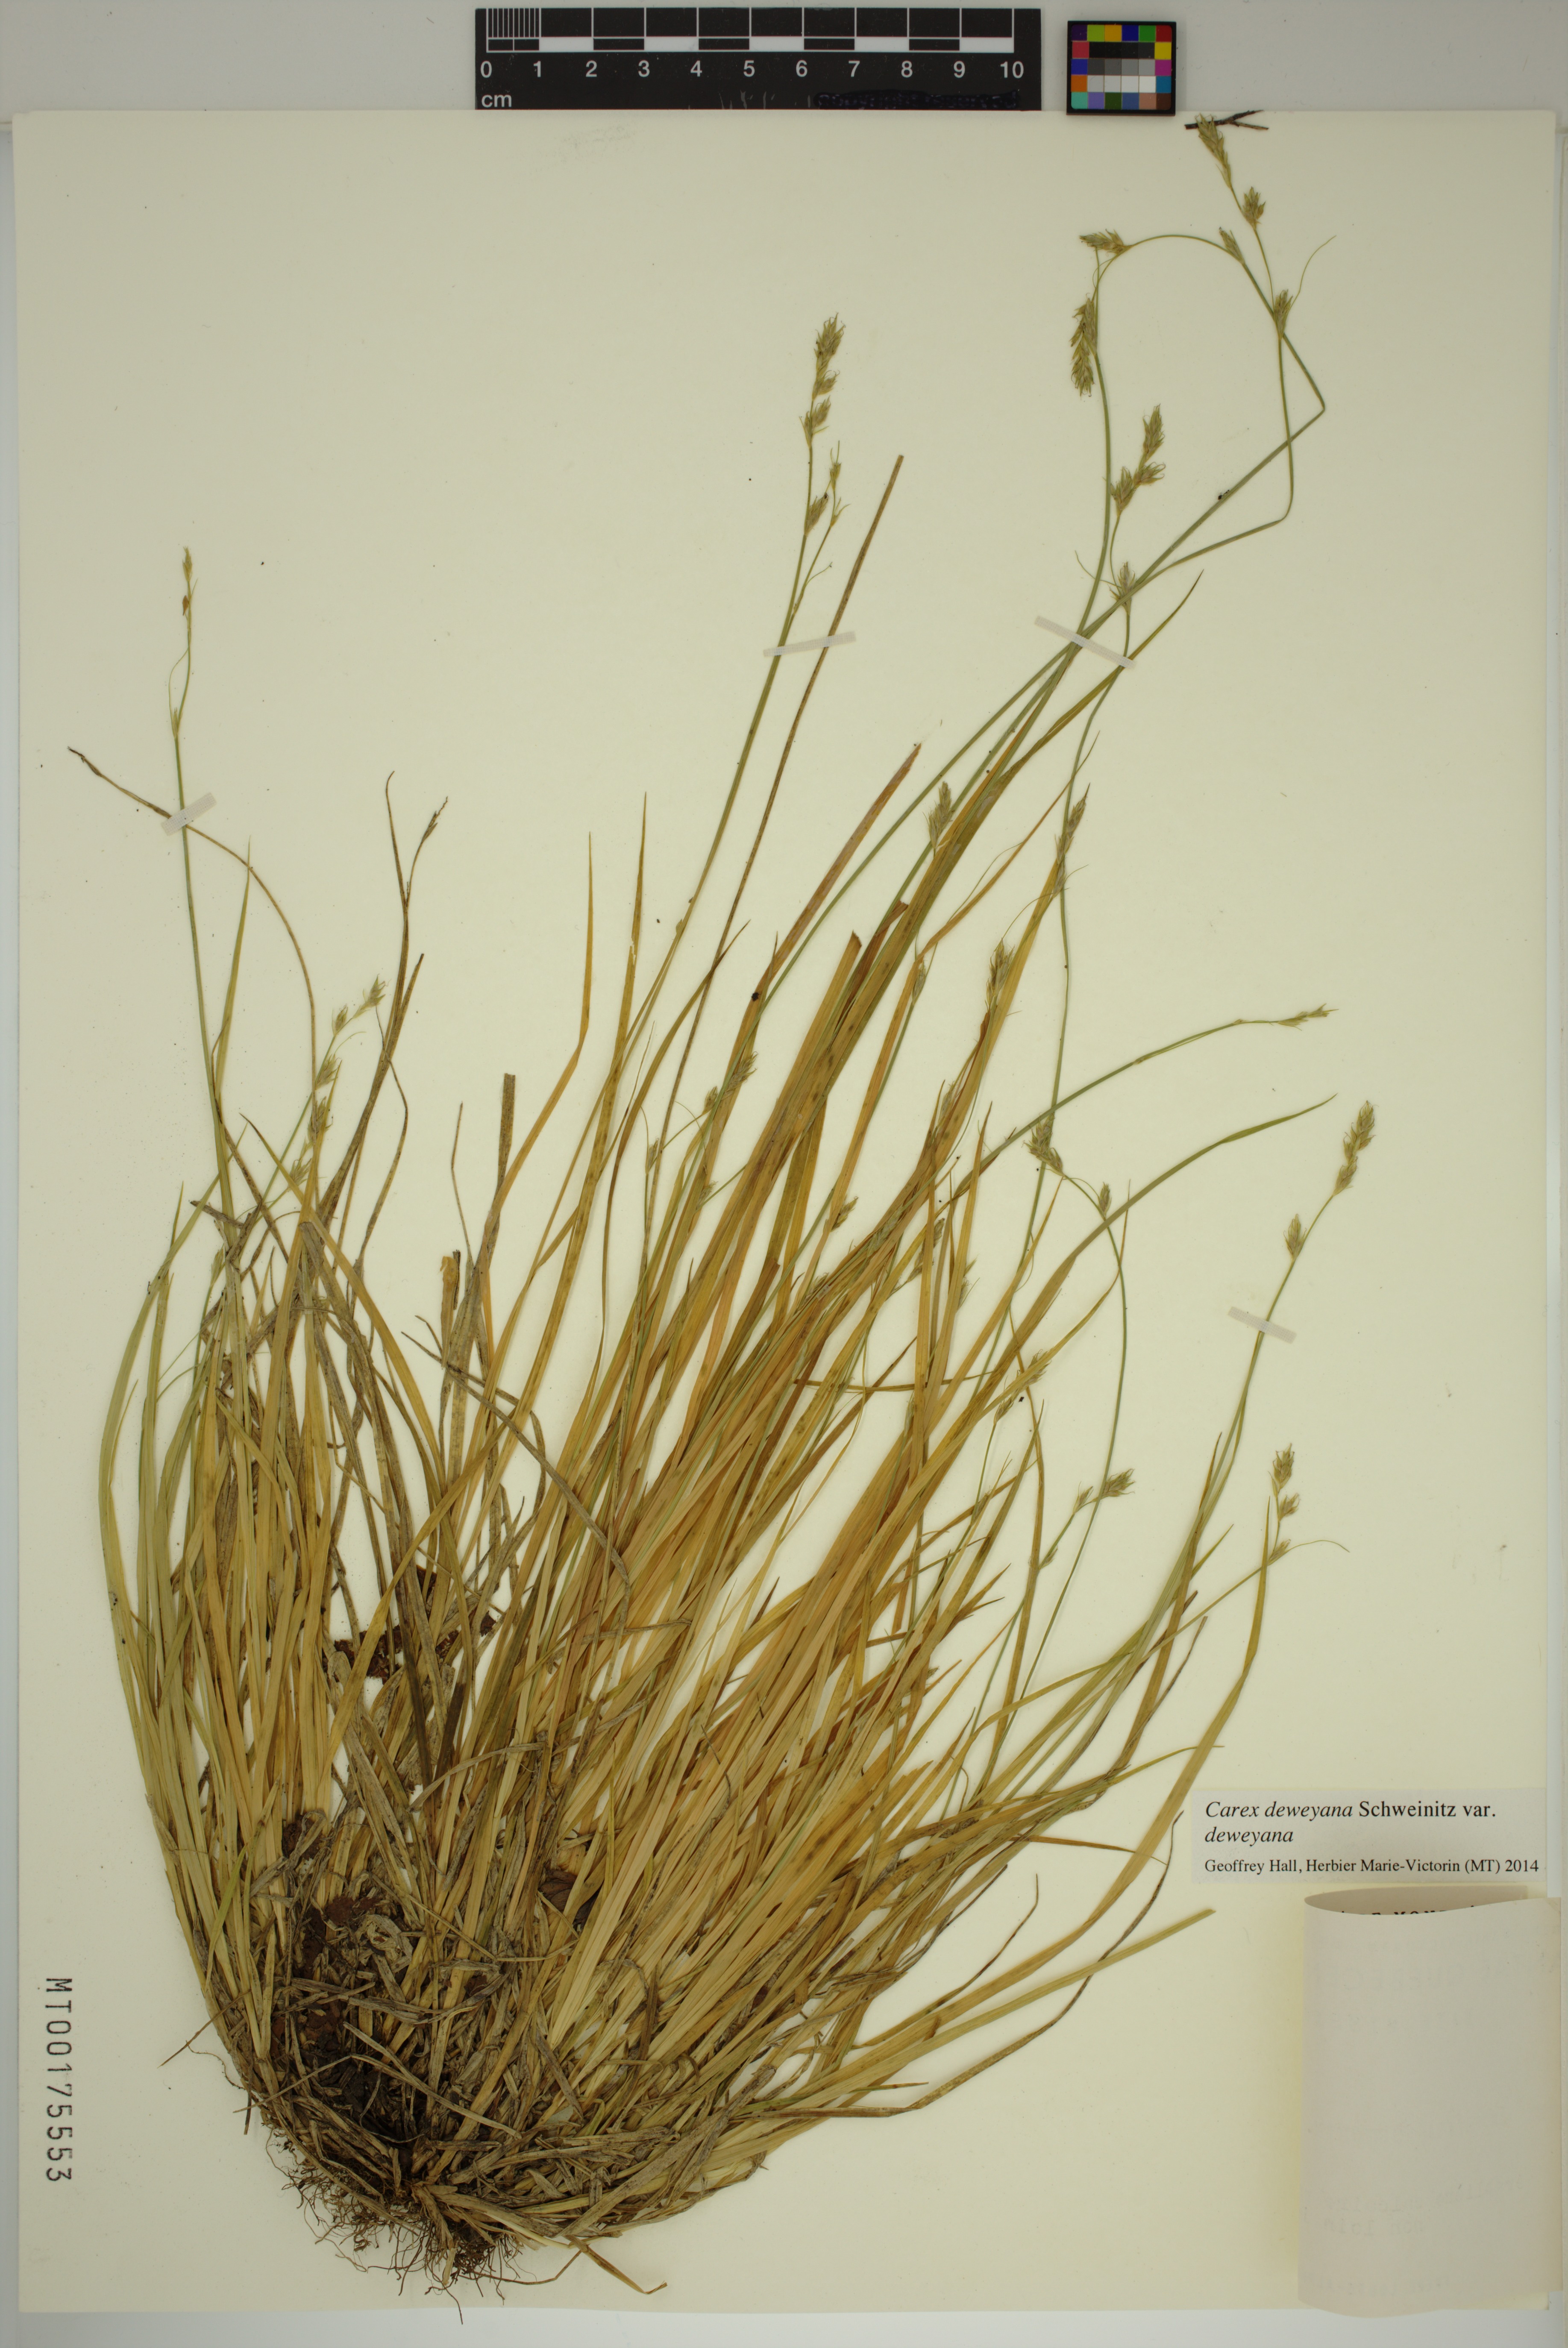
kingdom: Plantae
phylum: Tracheophyta
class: Liliopsida
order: Poales
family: Cyperaceae
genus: Carex
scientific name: Carex deweyana
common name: Dewey's sedge
